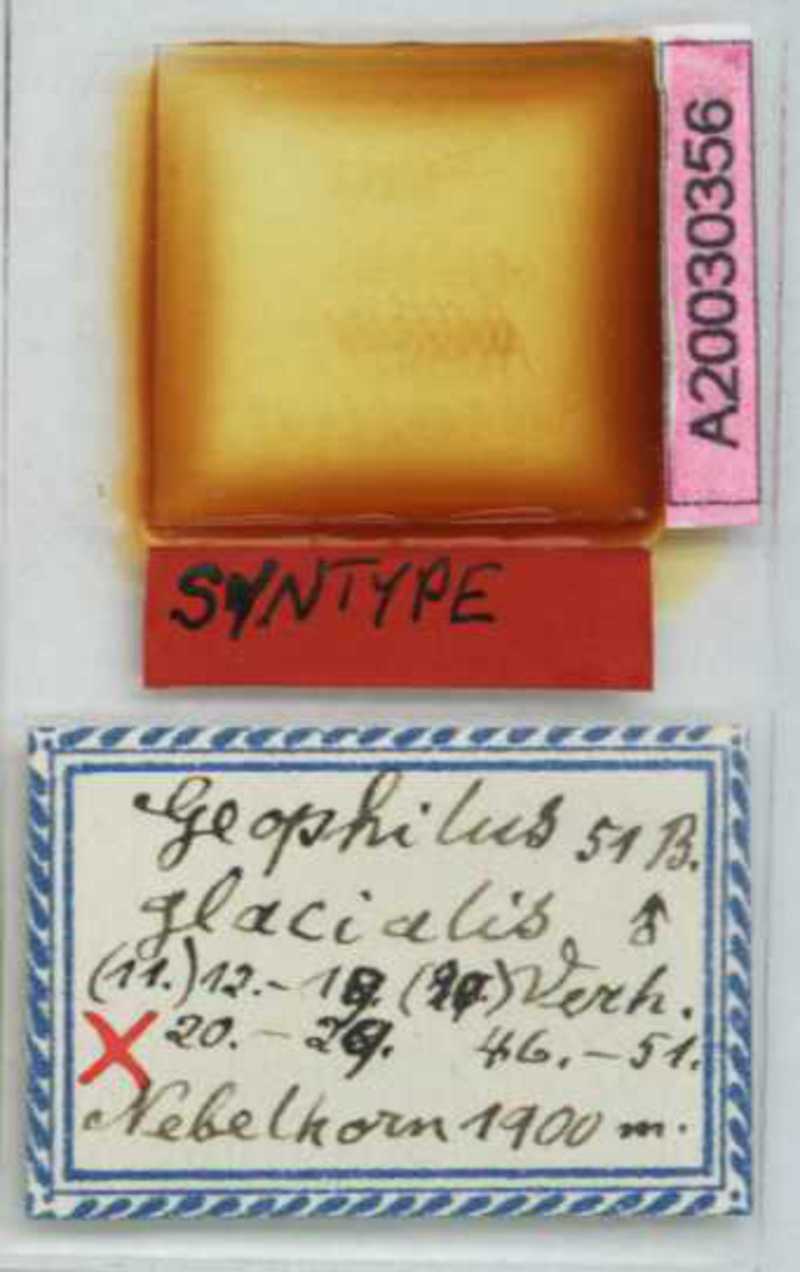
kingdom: Animalia
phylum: Arthropoda
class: Chilopoda
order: Geophilomorpha
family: Geophilidae
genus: Geophilus
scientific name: Geophilus insculptus
